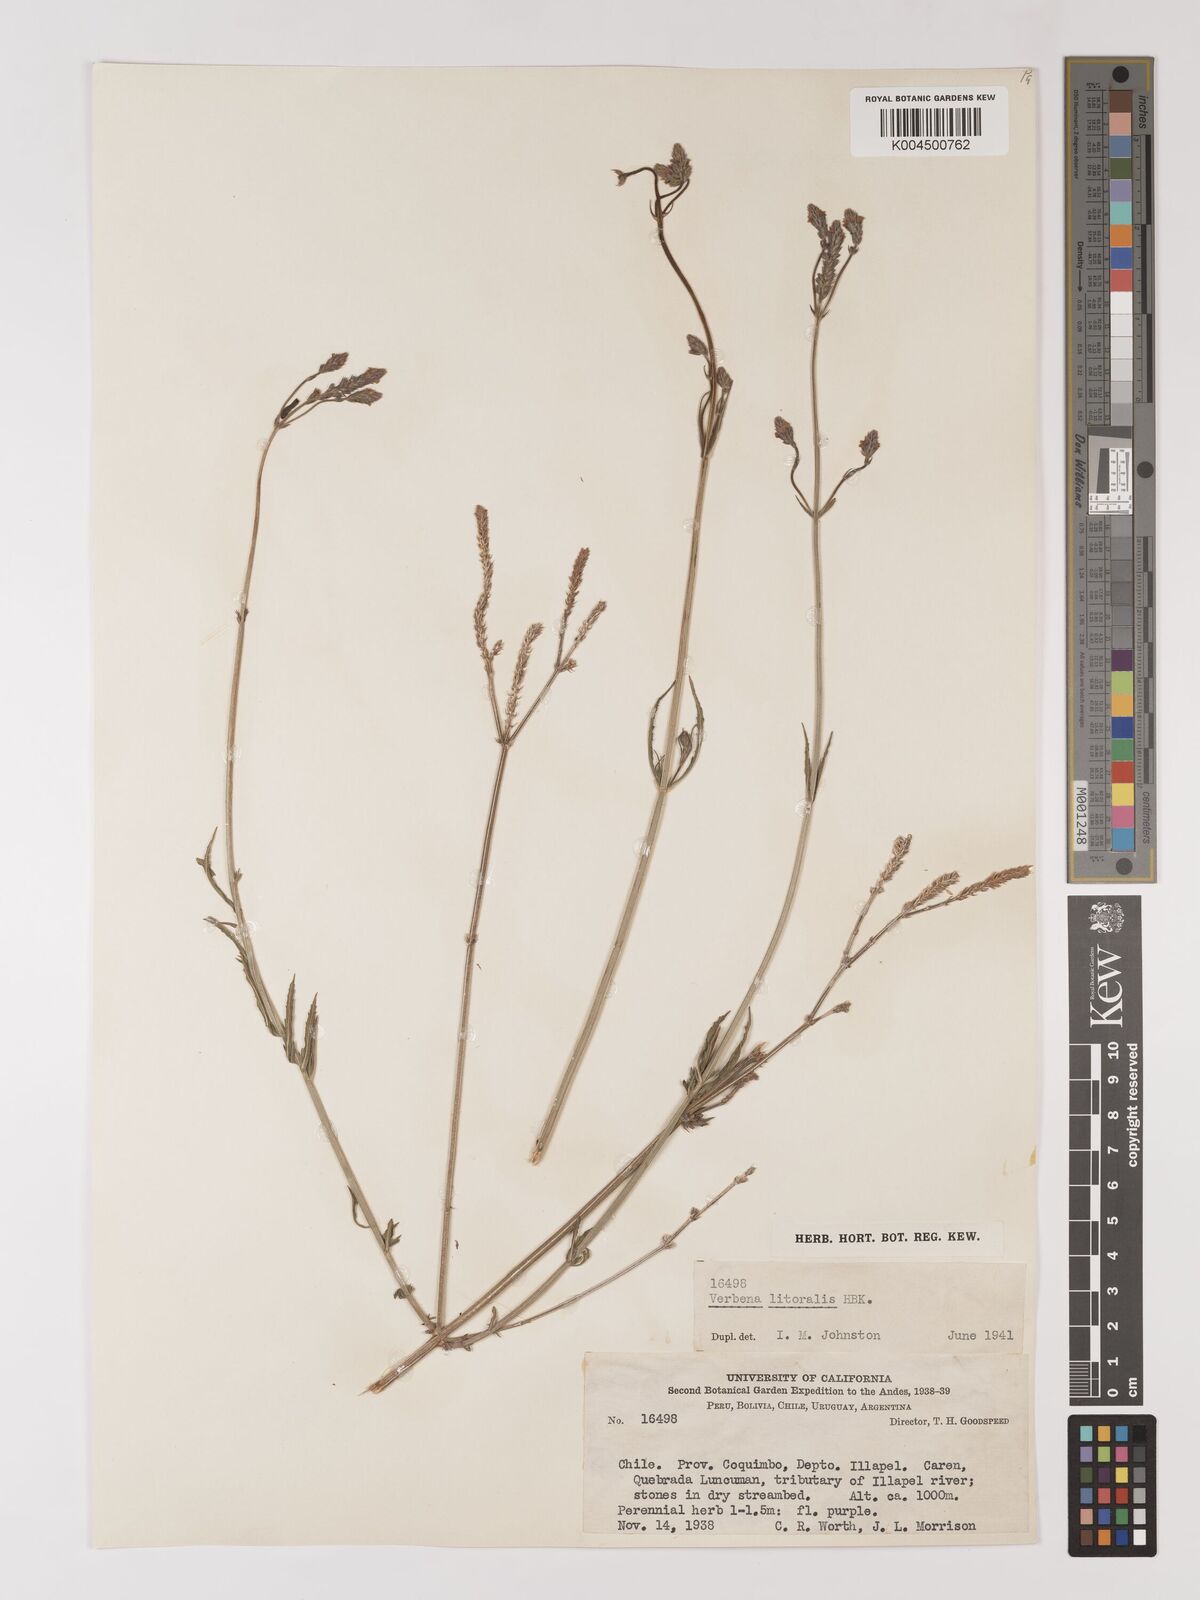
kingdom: Plantae
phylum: Tracheophyta
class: Magnoliopsida
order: Lamiales
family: Verbenaceae
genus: Verbena
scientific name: Verbena litoralis
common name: Seashore vervain
